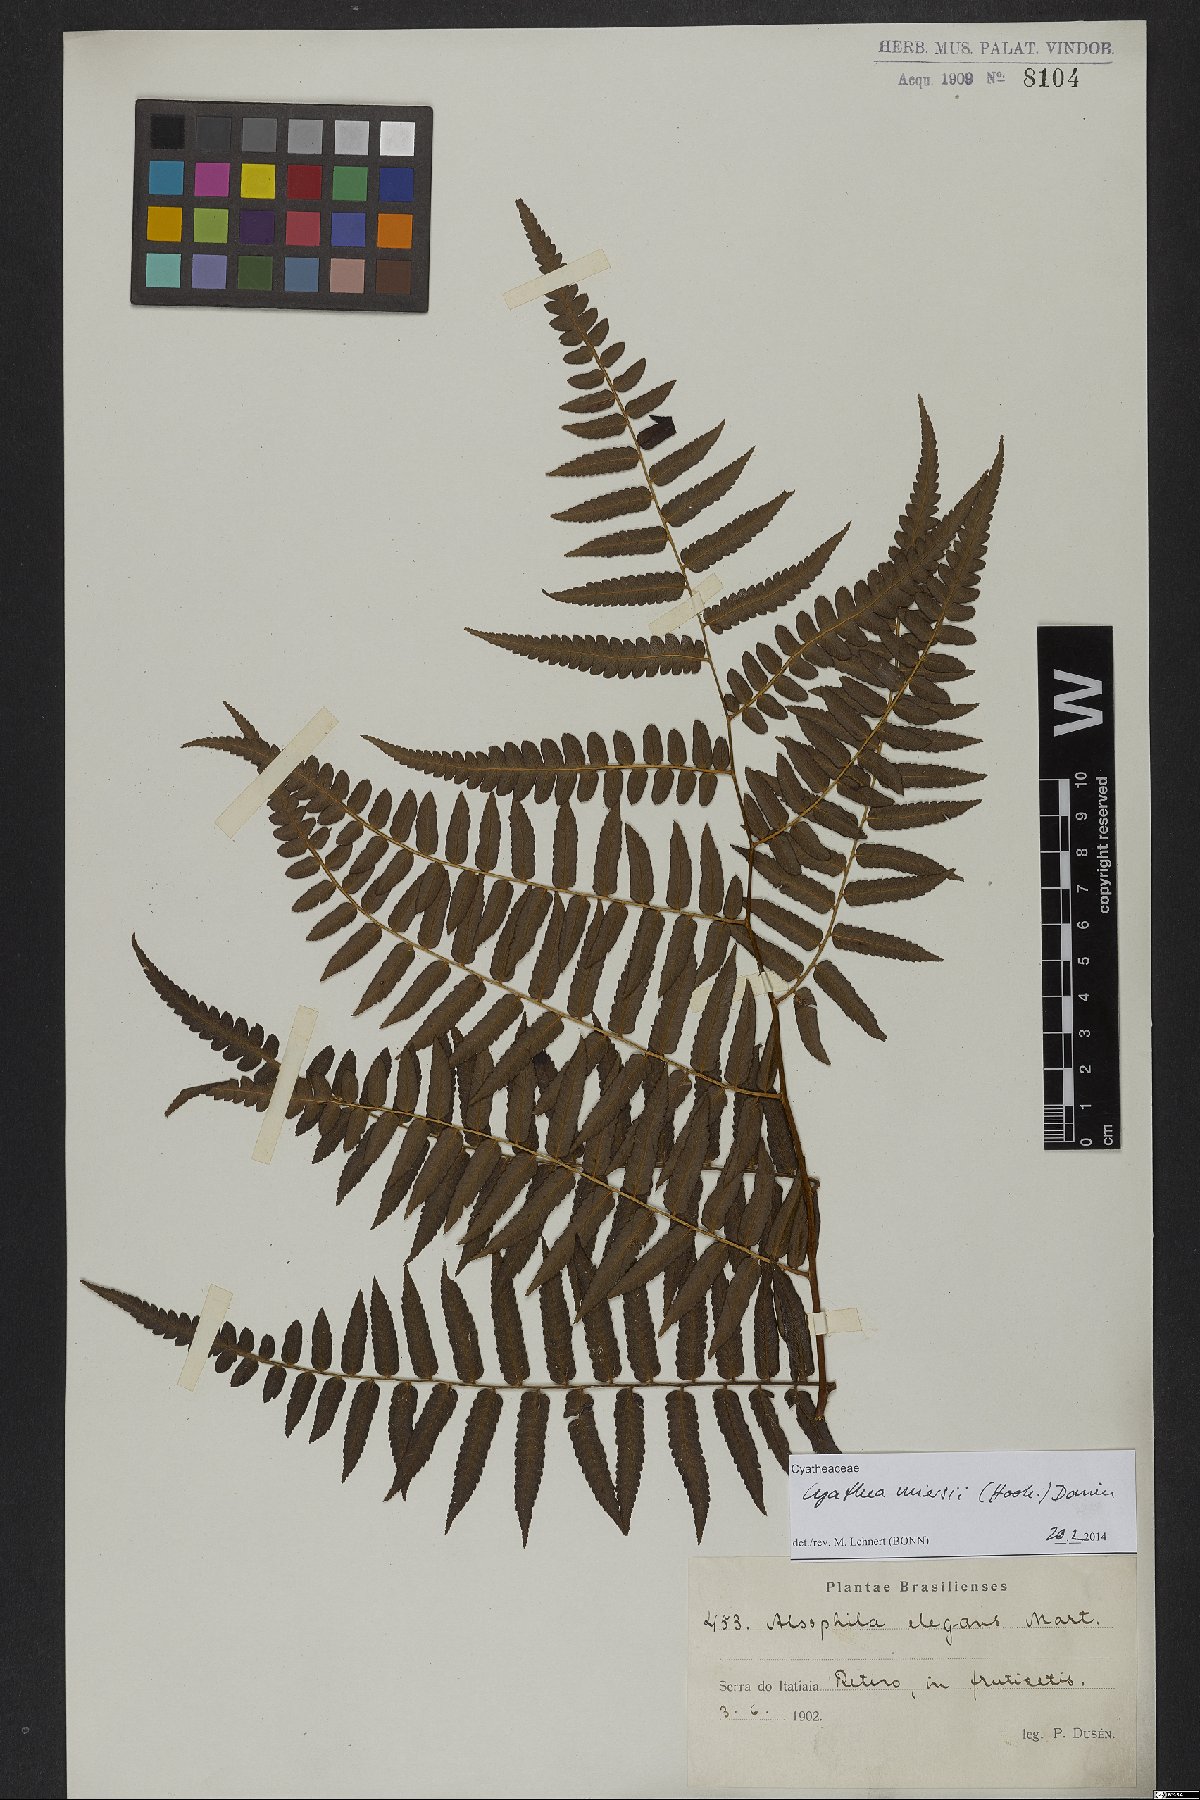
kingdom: Plantae
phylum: Tracheophyta
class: Polypodiopsida
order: Cyatheales
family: Cyatheaceae
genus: Cyathea
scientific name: Cyathea miersii
